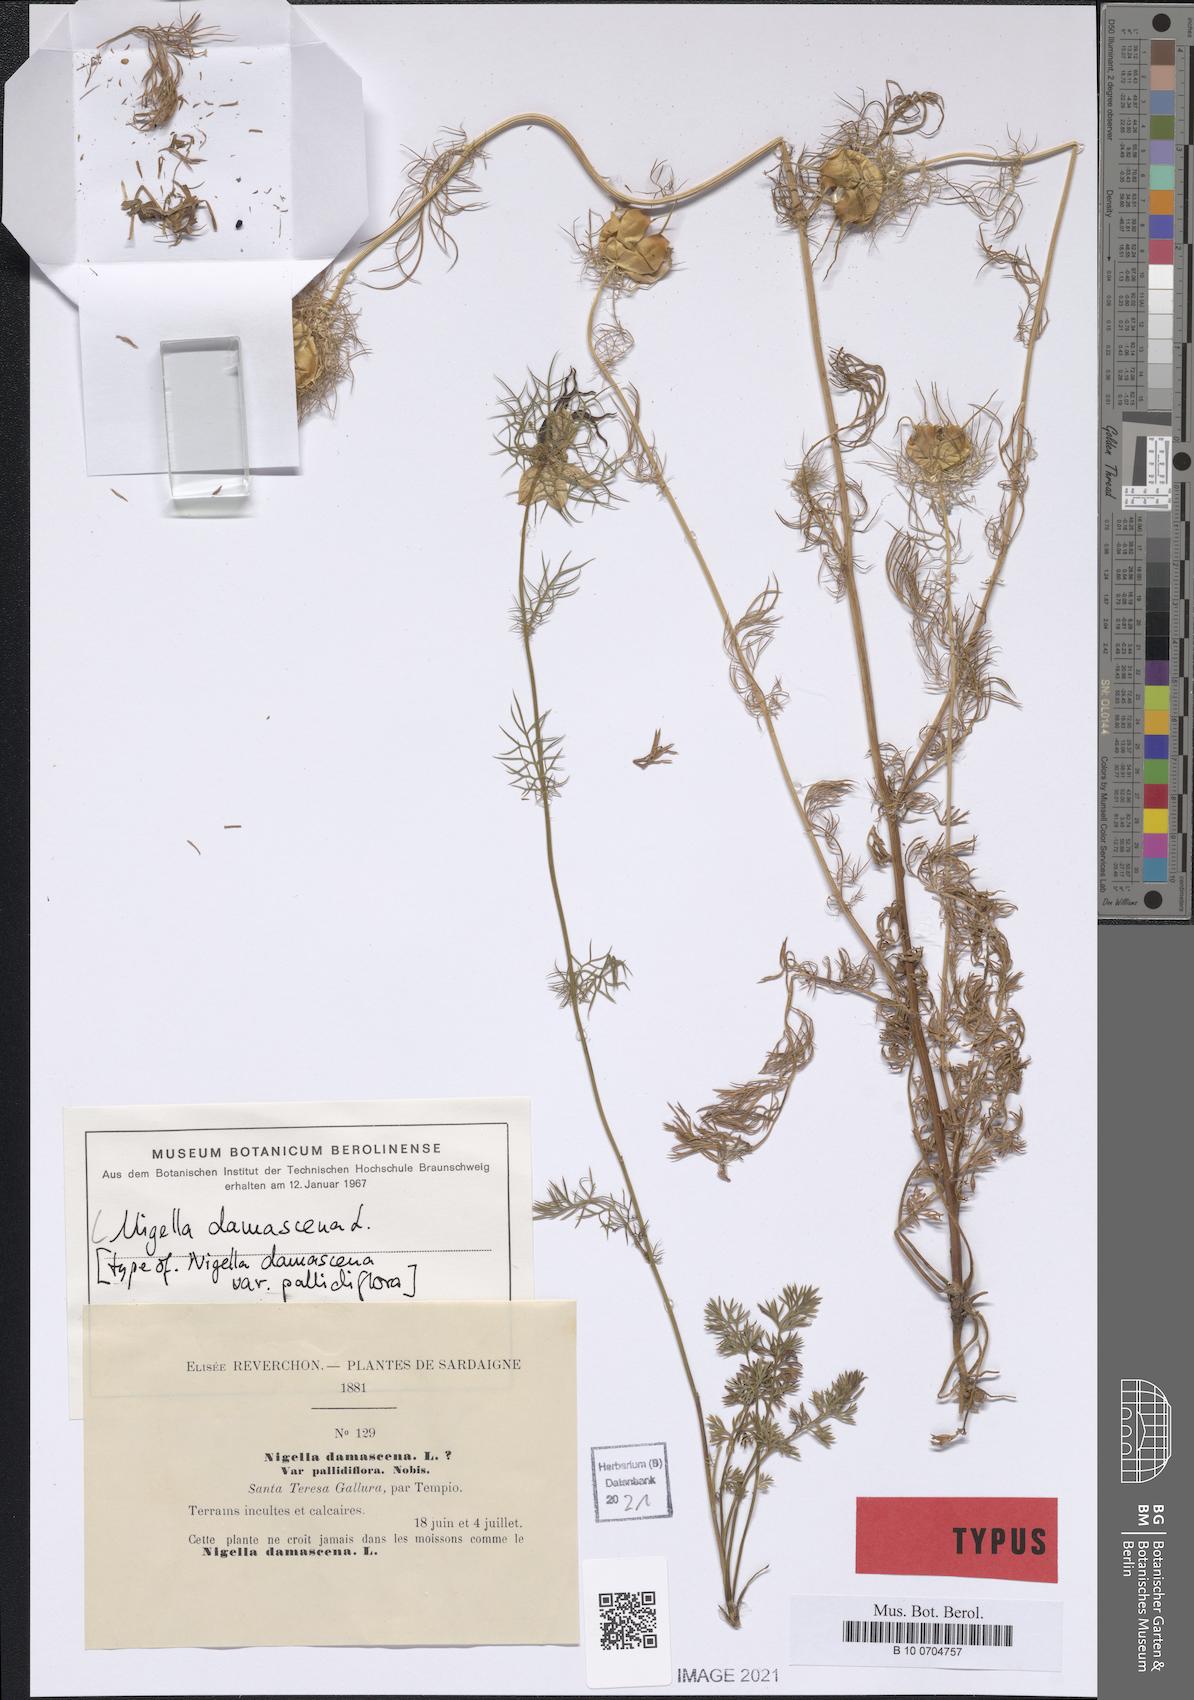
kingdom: Plantae
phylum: Tracheophyta
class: Magnoliopsida
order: Ranunculales
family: Ranunculaceae
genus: Nigella
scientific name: Nigella damascena
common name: Love-in-a-mist
